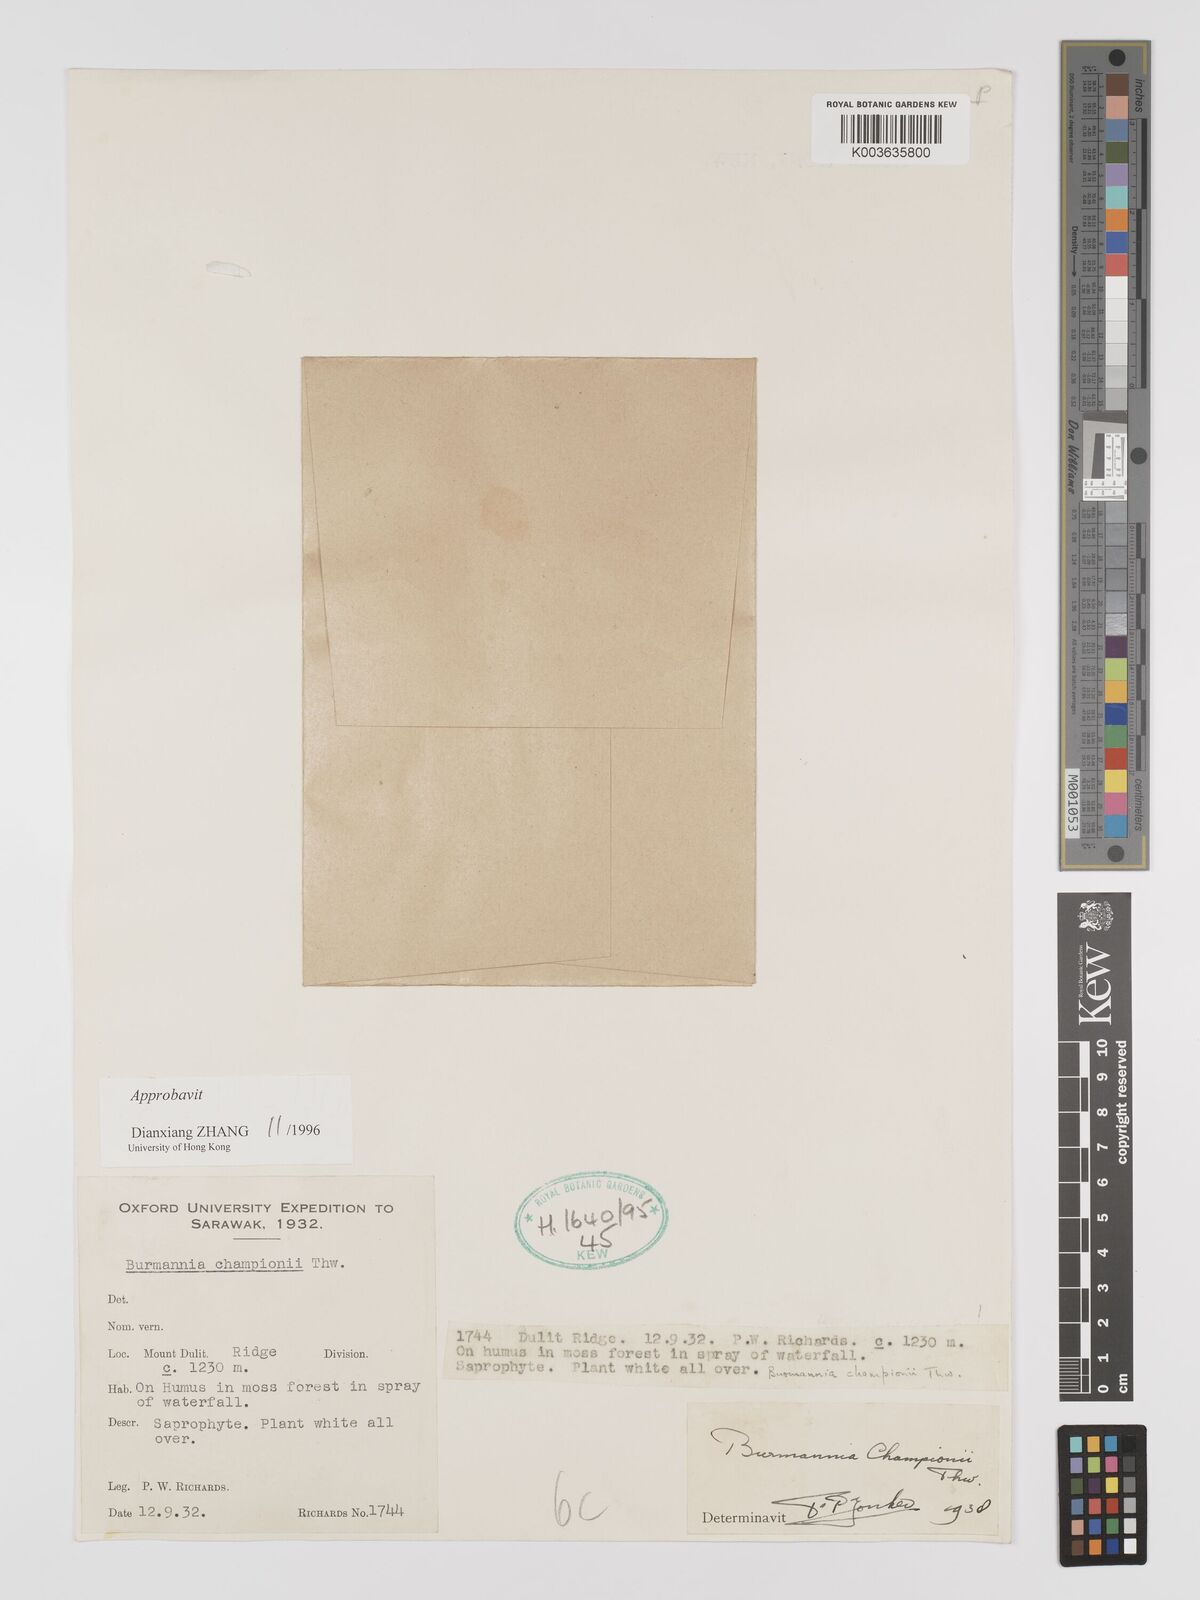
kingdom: Plantae
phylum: Tracheophyta
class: Liliopsida
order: Dioscoreales
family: Burmanniaceae
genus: Burmannia
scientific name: Burmannia longifolia
